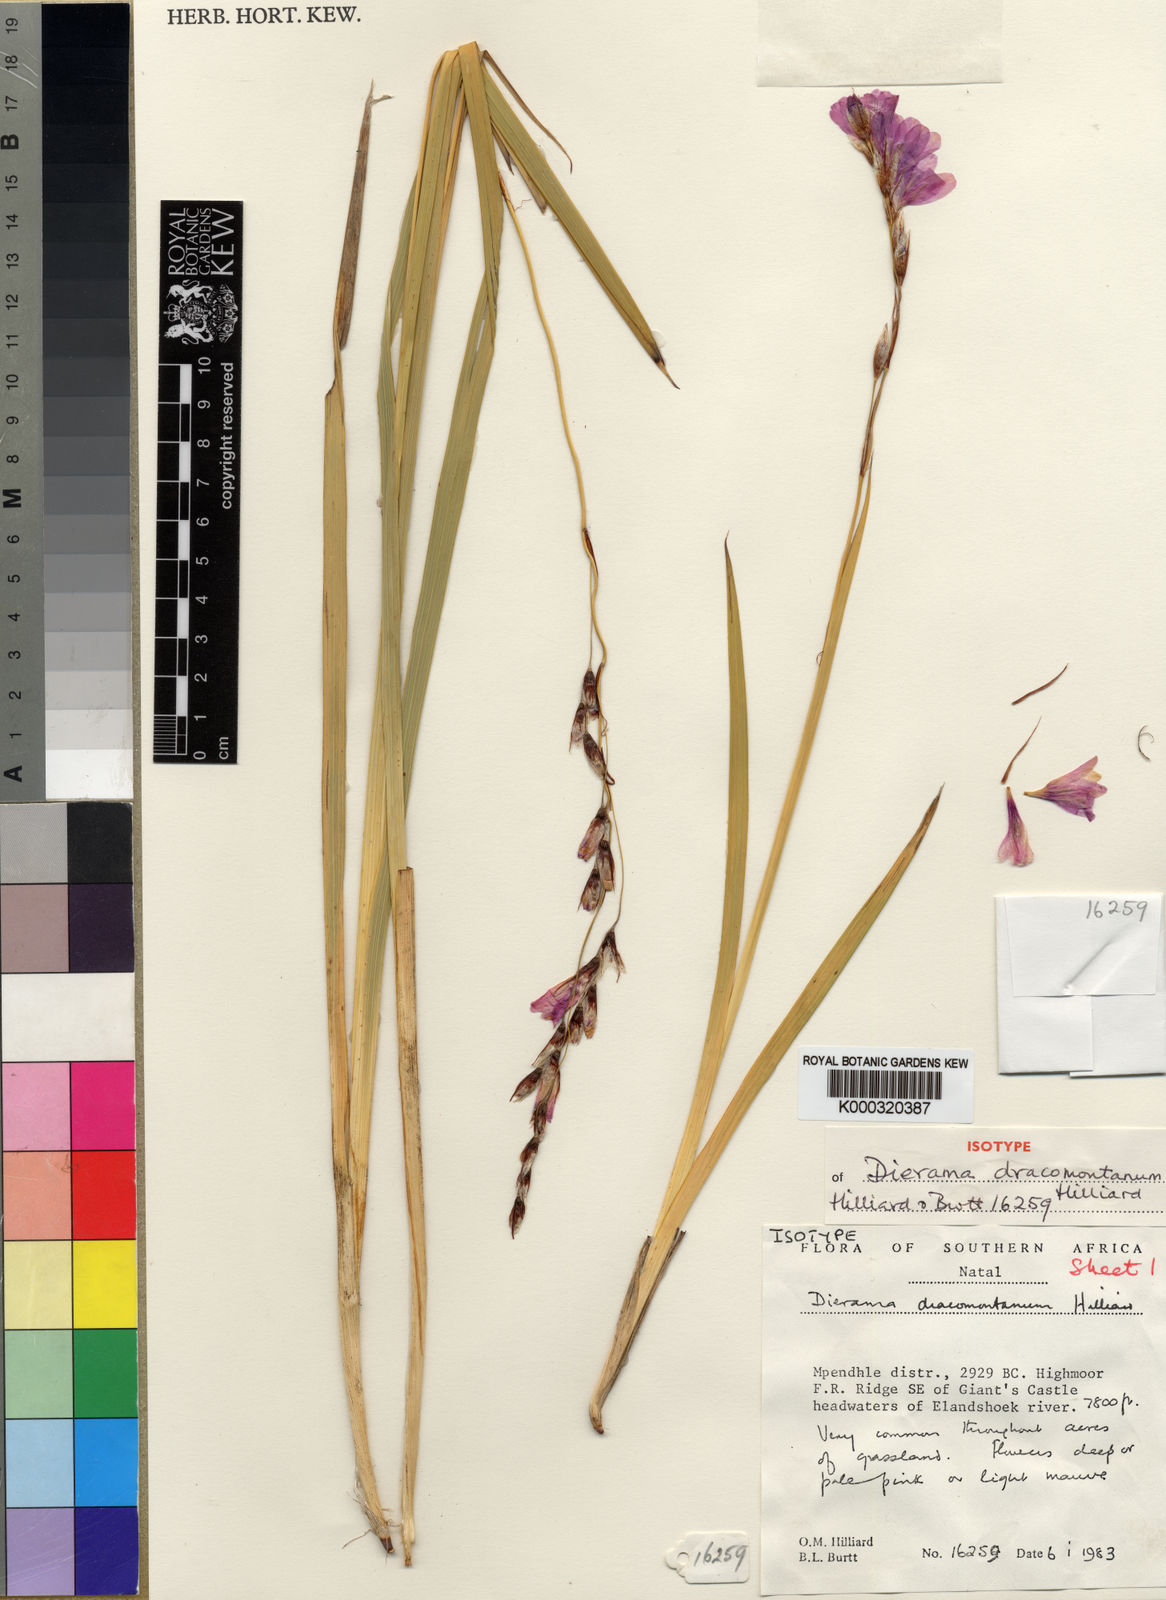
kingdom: Plantae
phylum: Tracheophyta
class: Liliopsida
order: Asparagales
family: Iridaceae
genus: Dierama
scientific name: Dierama dracomontanum
